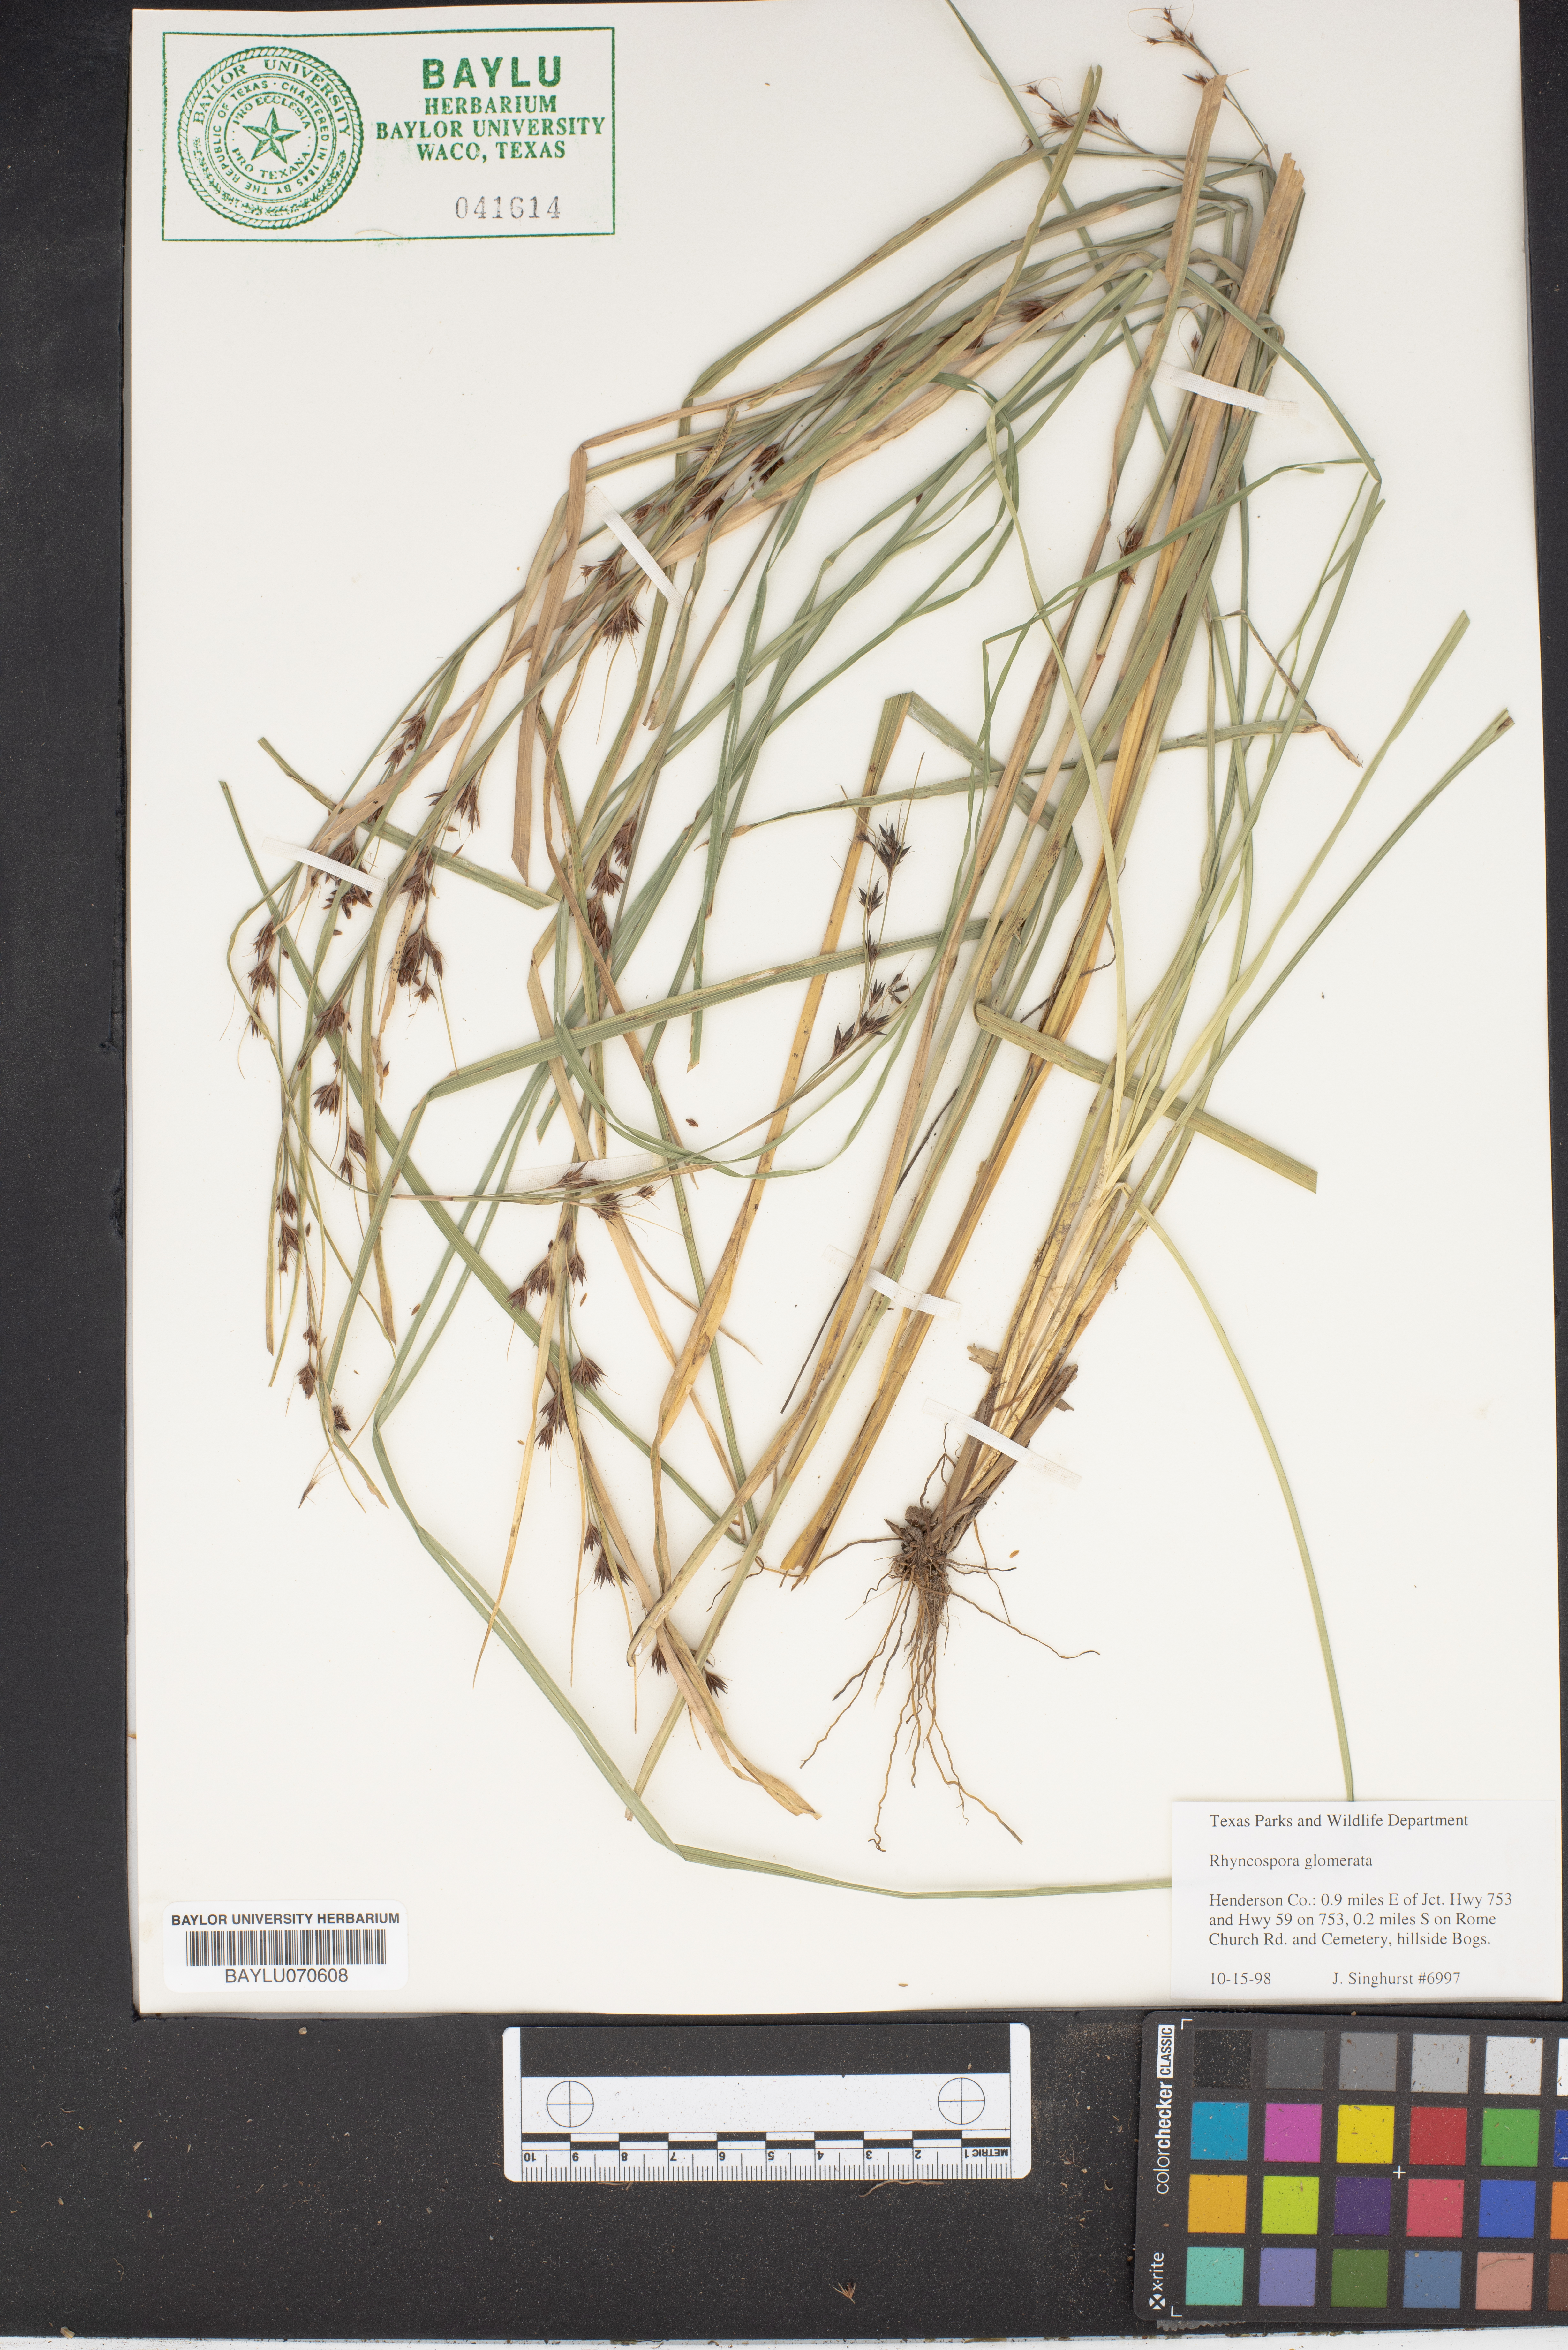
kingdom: Plantae
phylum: Tracheophyta
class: Liliopsida
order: Poales
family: Cyperaceae
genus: Rhynchospora
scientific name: Rhynchospora glomerata
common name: Cluster beak sedge
